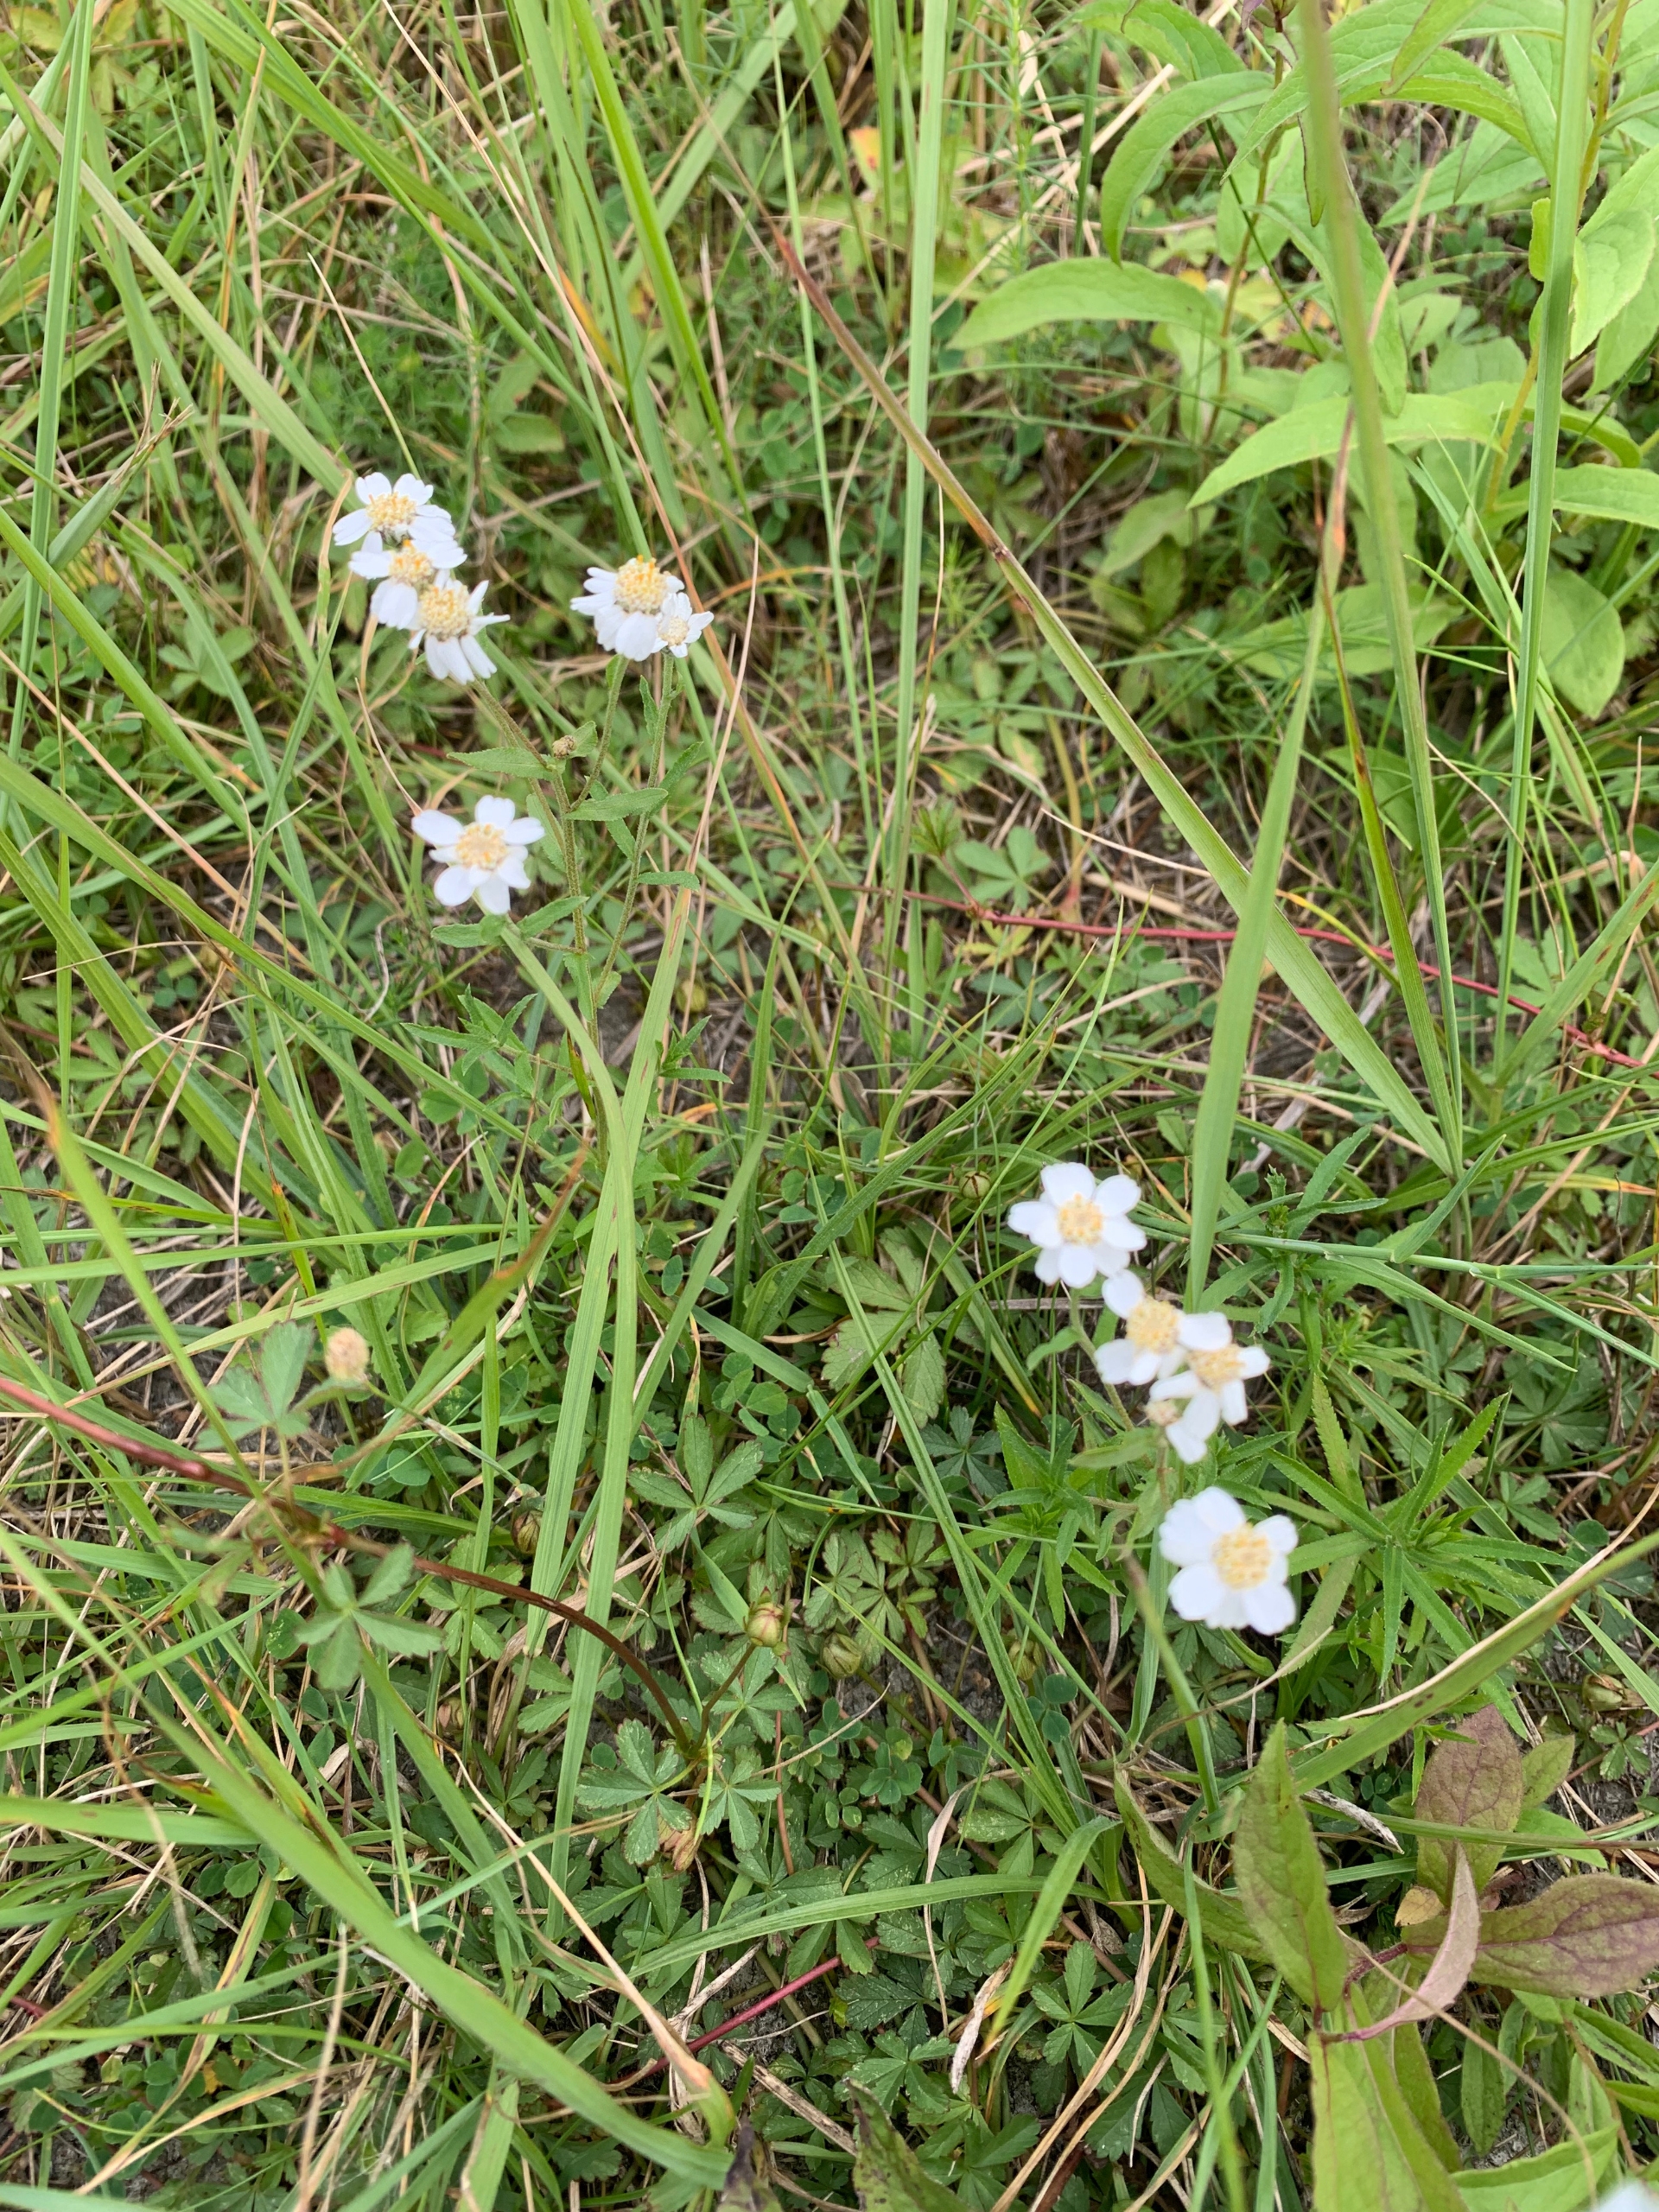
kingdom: Plantae
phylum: Tracheophyta
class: Magnoliopsida
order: Asterales
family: Asteraceae
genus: Achillea
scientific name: Achillea ptarmica
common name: Nyse-røllike
